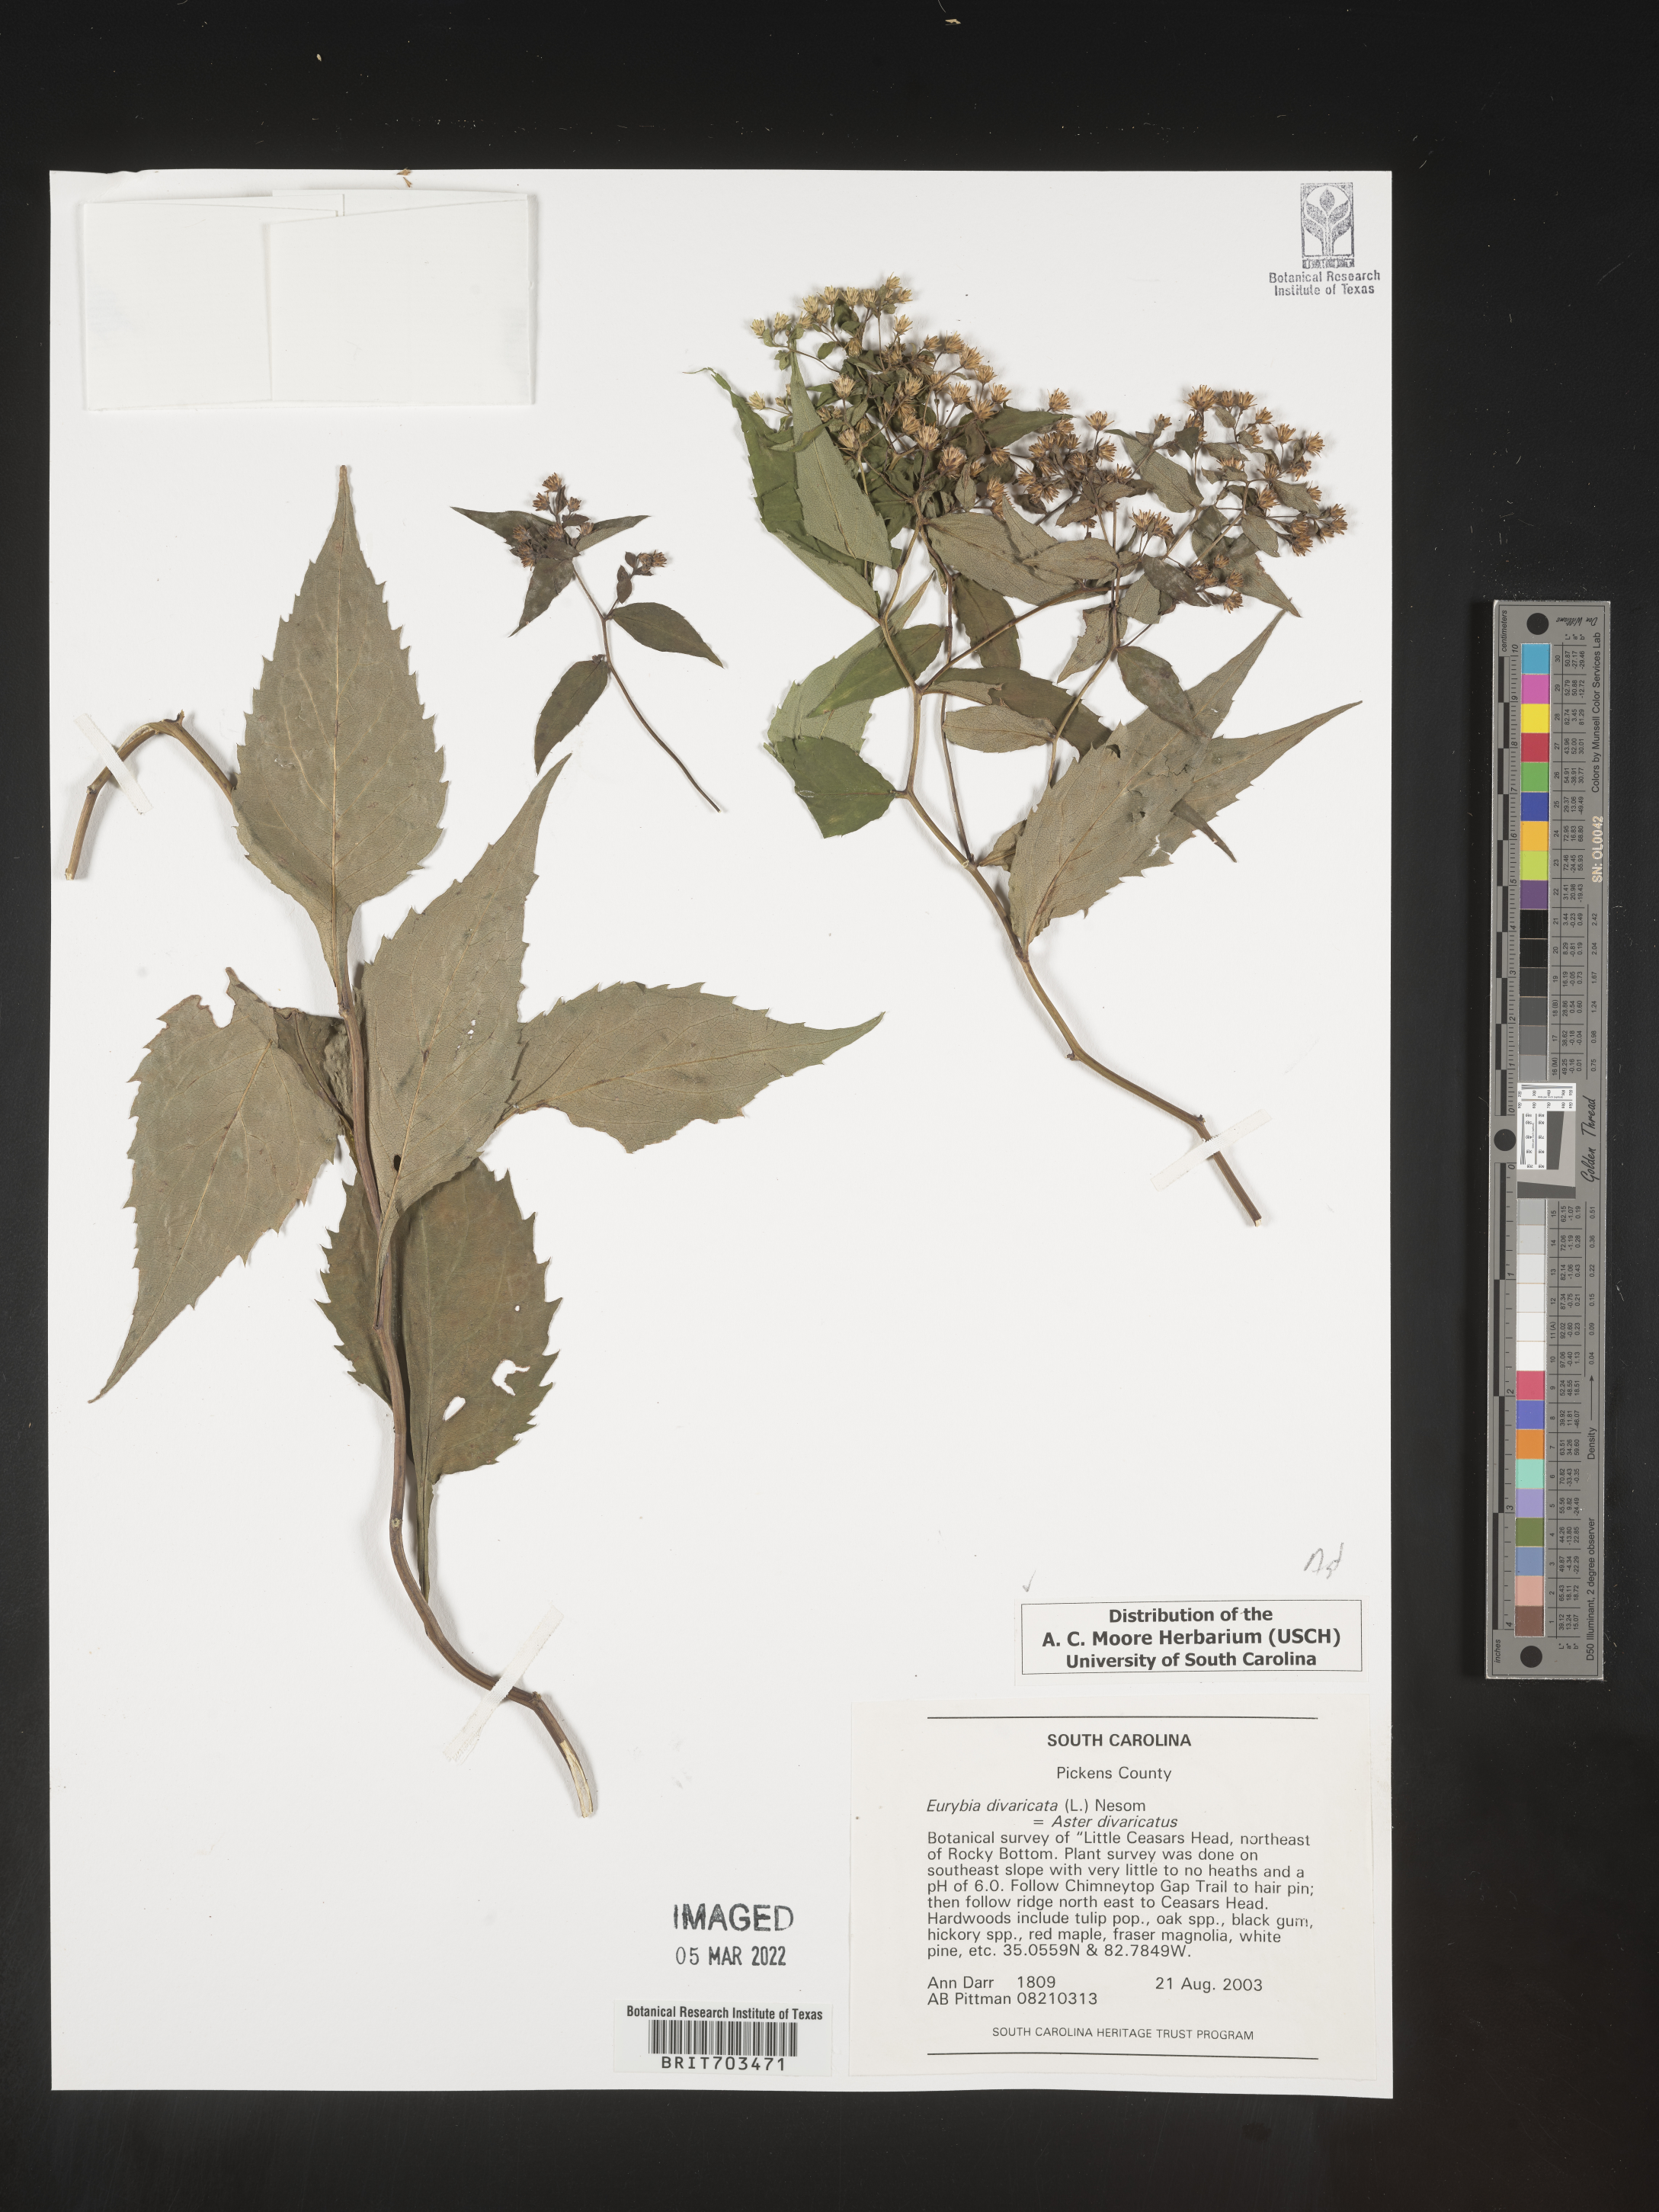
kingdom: Plantae
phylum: Tracheophyta
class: Magnoliopsida
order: Asterales
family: Asteraceae
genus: Eurybia
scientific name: Eurybia divaricata
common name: White wood aster
